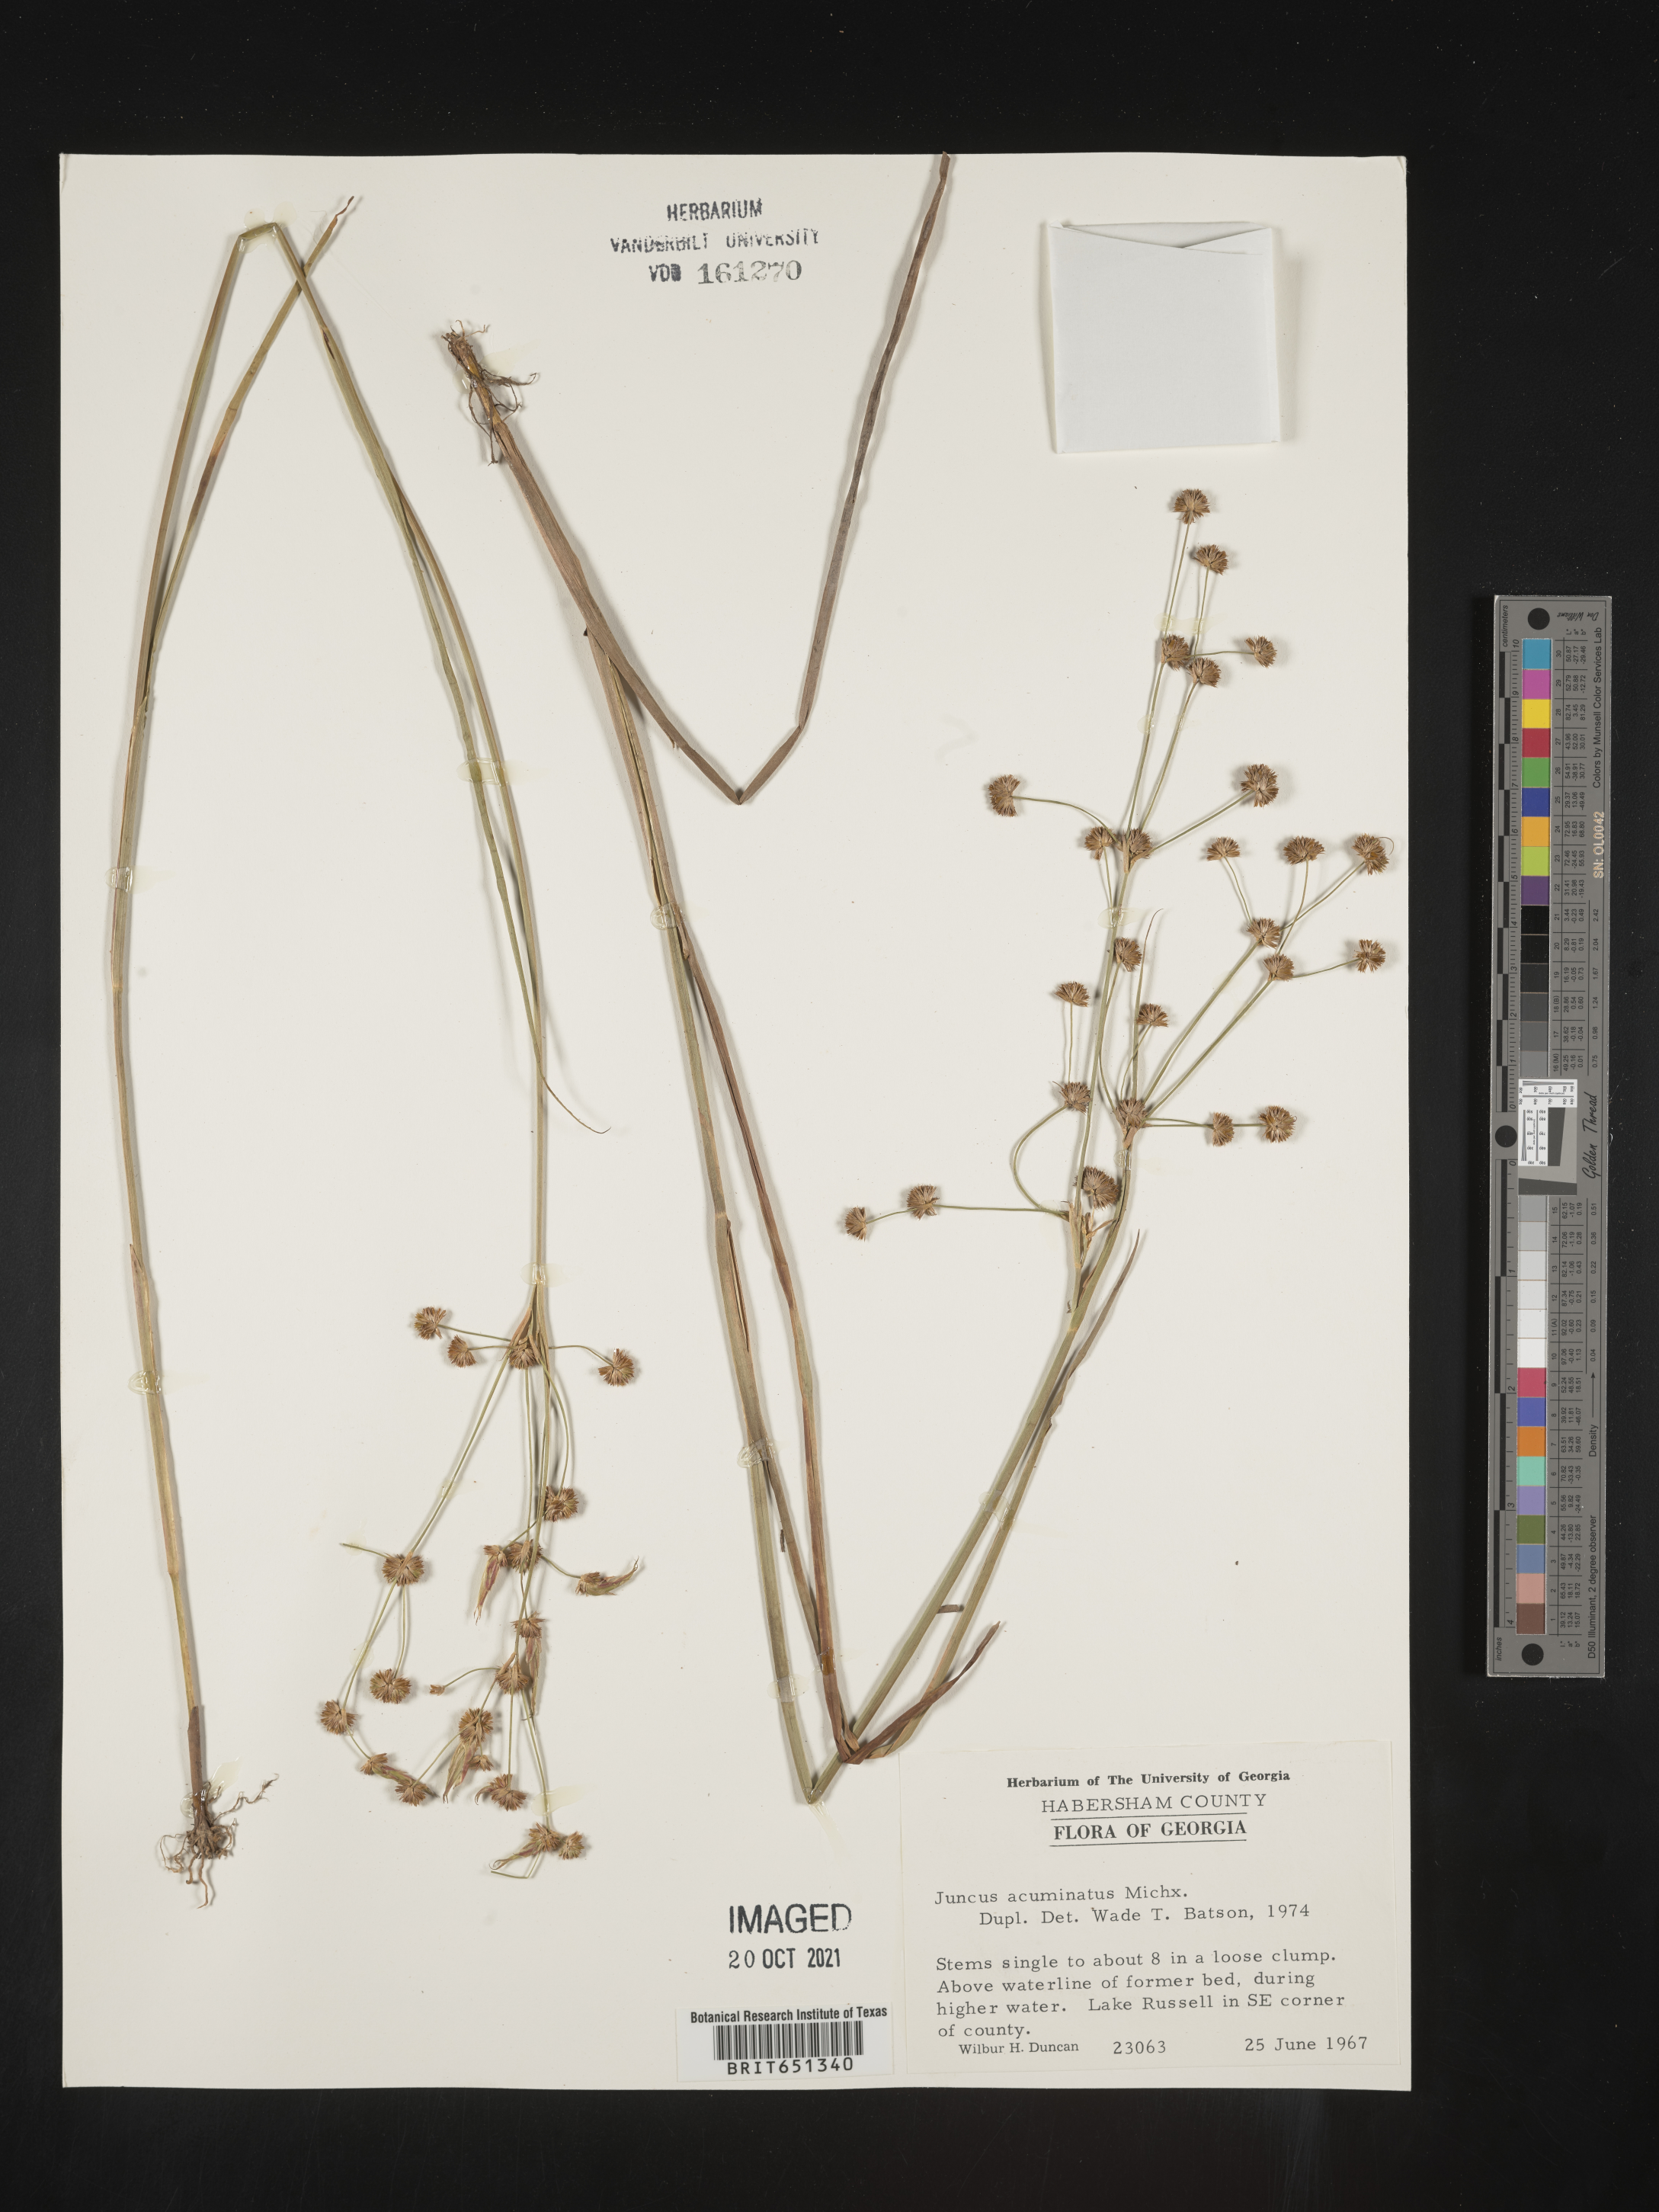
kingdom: Plantae
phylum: Tracheophyta
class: Liliopsida
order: Poales
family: Juncaceae
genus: Juncus
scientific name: Juncus acuminatus
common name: Knotty-leaved rush
